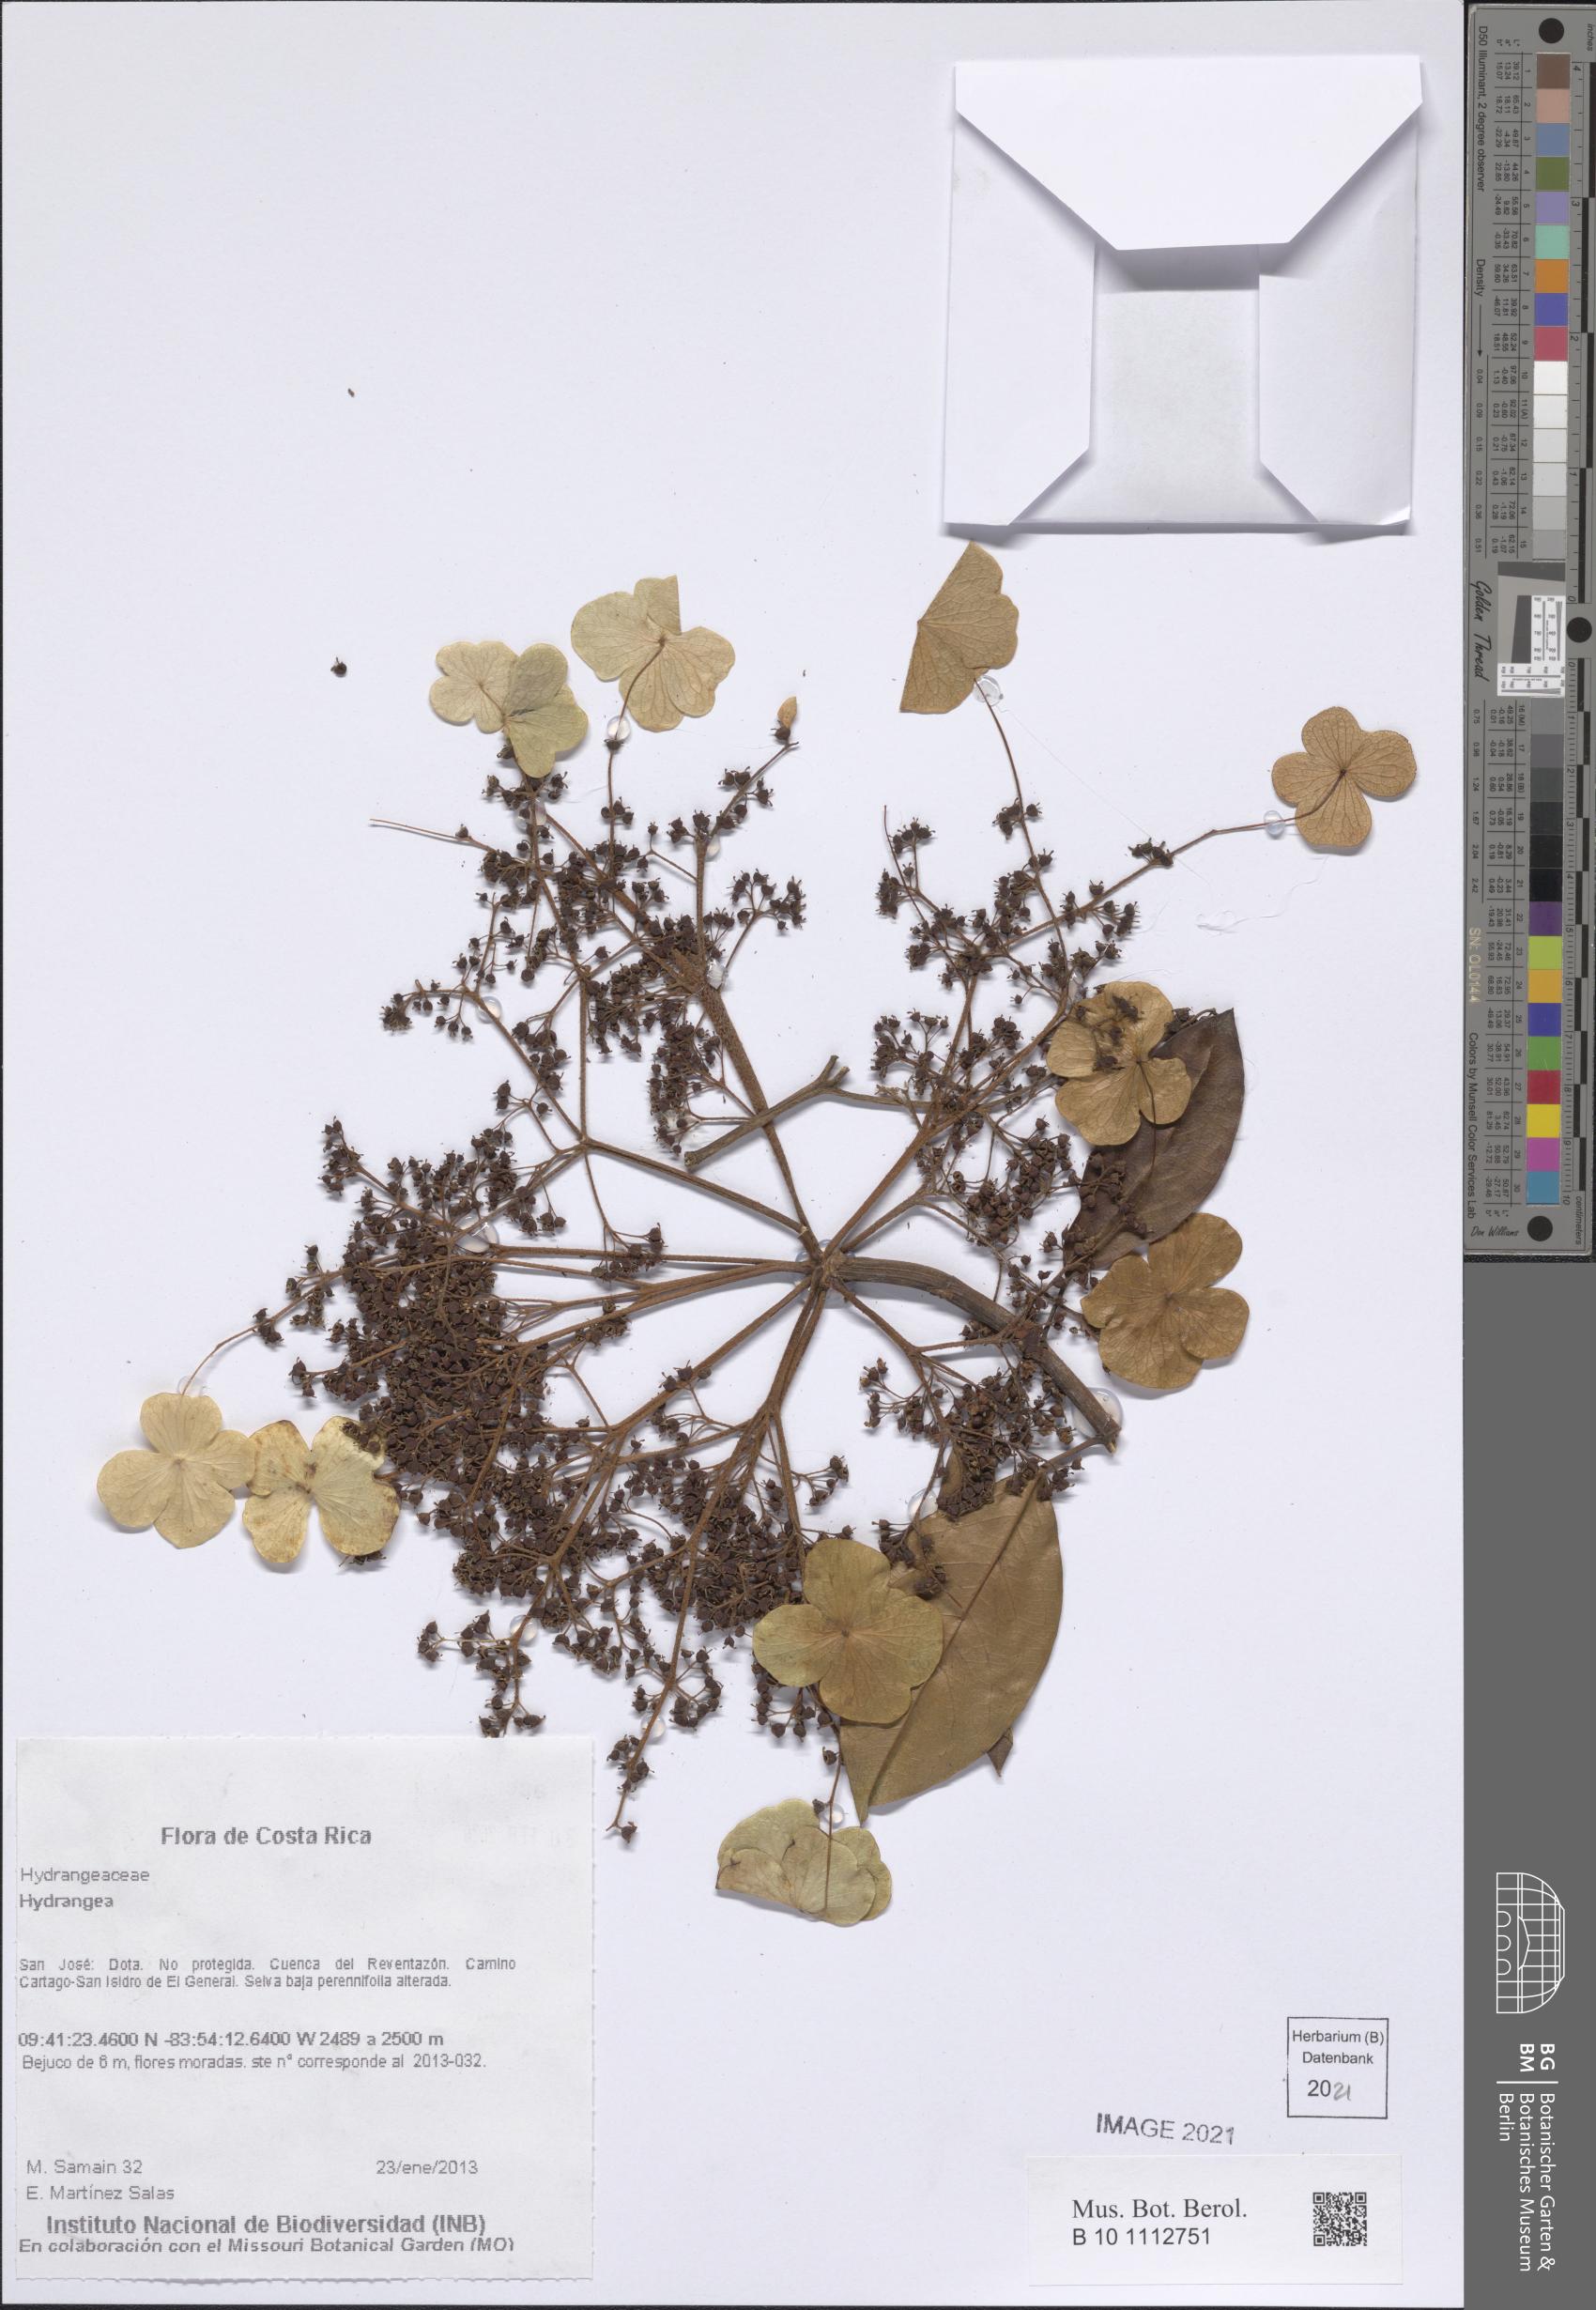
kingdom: Plantae
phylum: Tracheophyta
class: Magnoliopsida
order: Cornales
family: Hydrangeaceae
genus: Hydrangea
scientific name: Hydrangea
